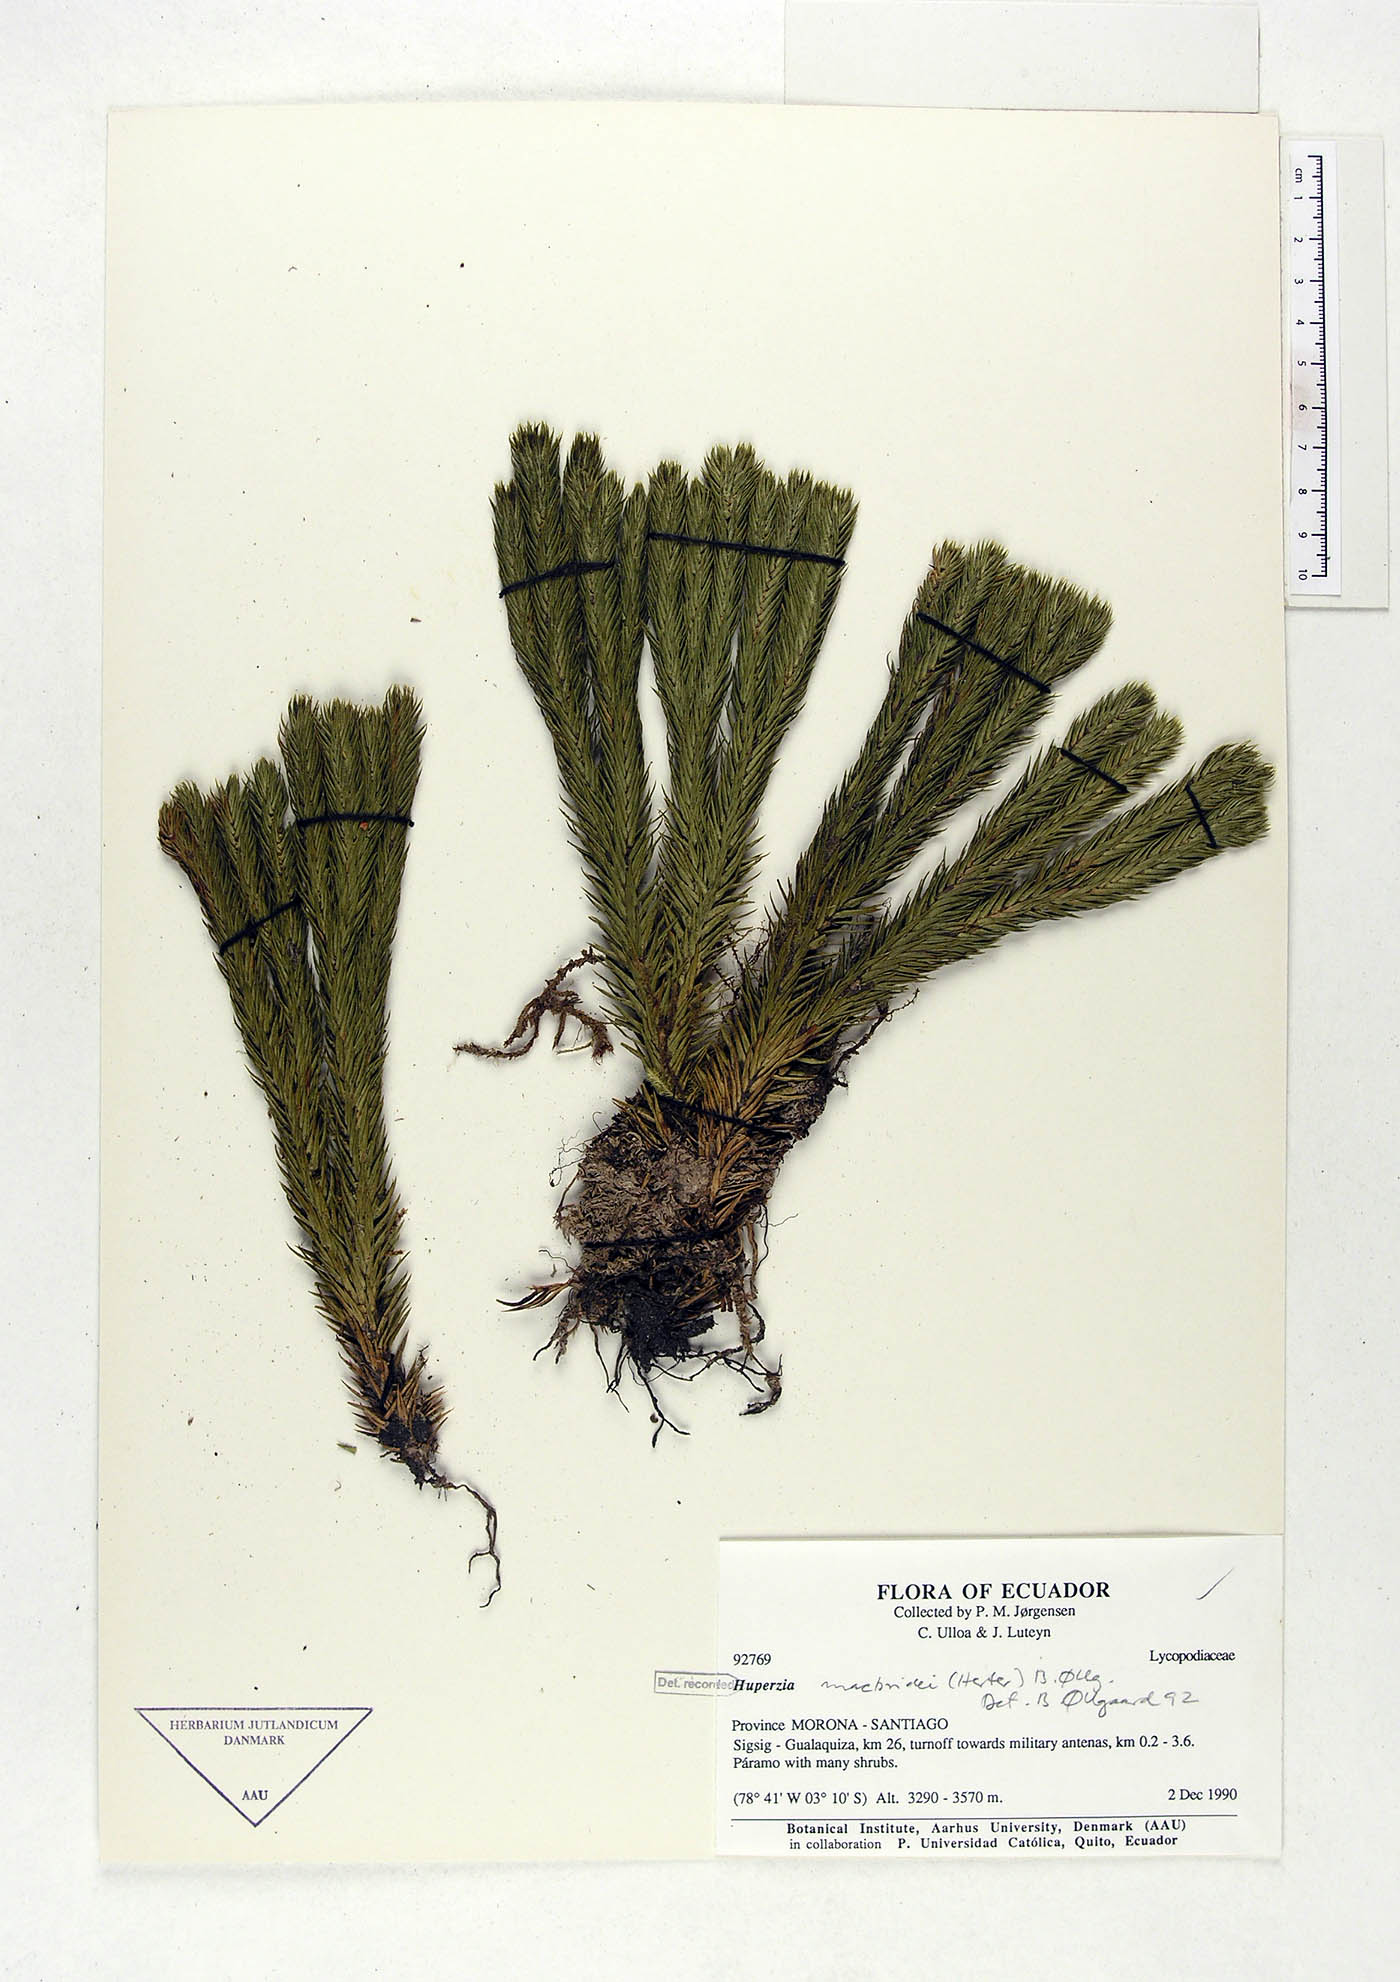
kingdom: Plantae
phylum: Tracheophyta
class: Lycopodiopsida
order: Lycopodiales
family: Lycopodiaceae
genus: Phlegmariurus
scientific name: Phlegmariurus macbridei
